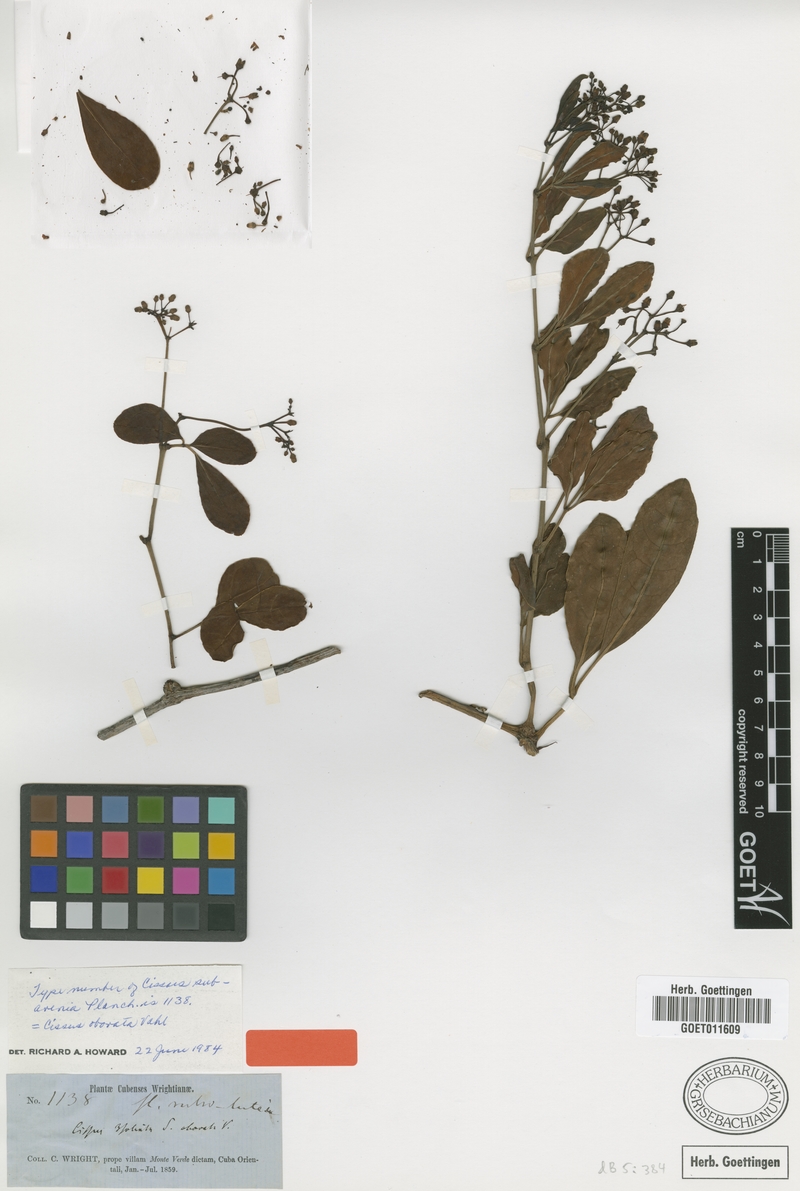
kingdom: Plantae
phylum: Tracheophyta
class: Magnoliopsida
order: Vitales
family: Vitaceae
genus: Cissus
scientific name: Cissus wrightiana
